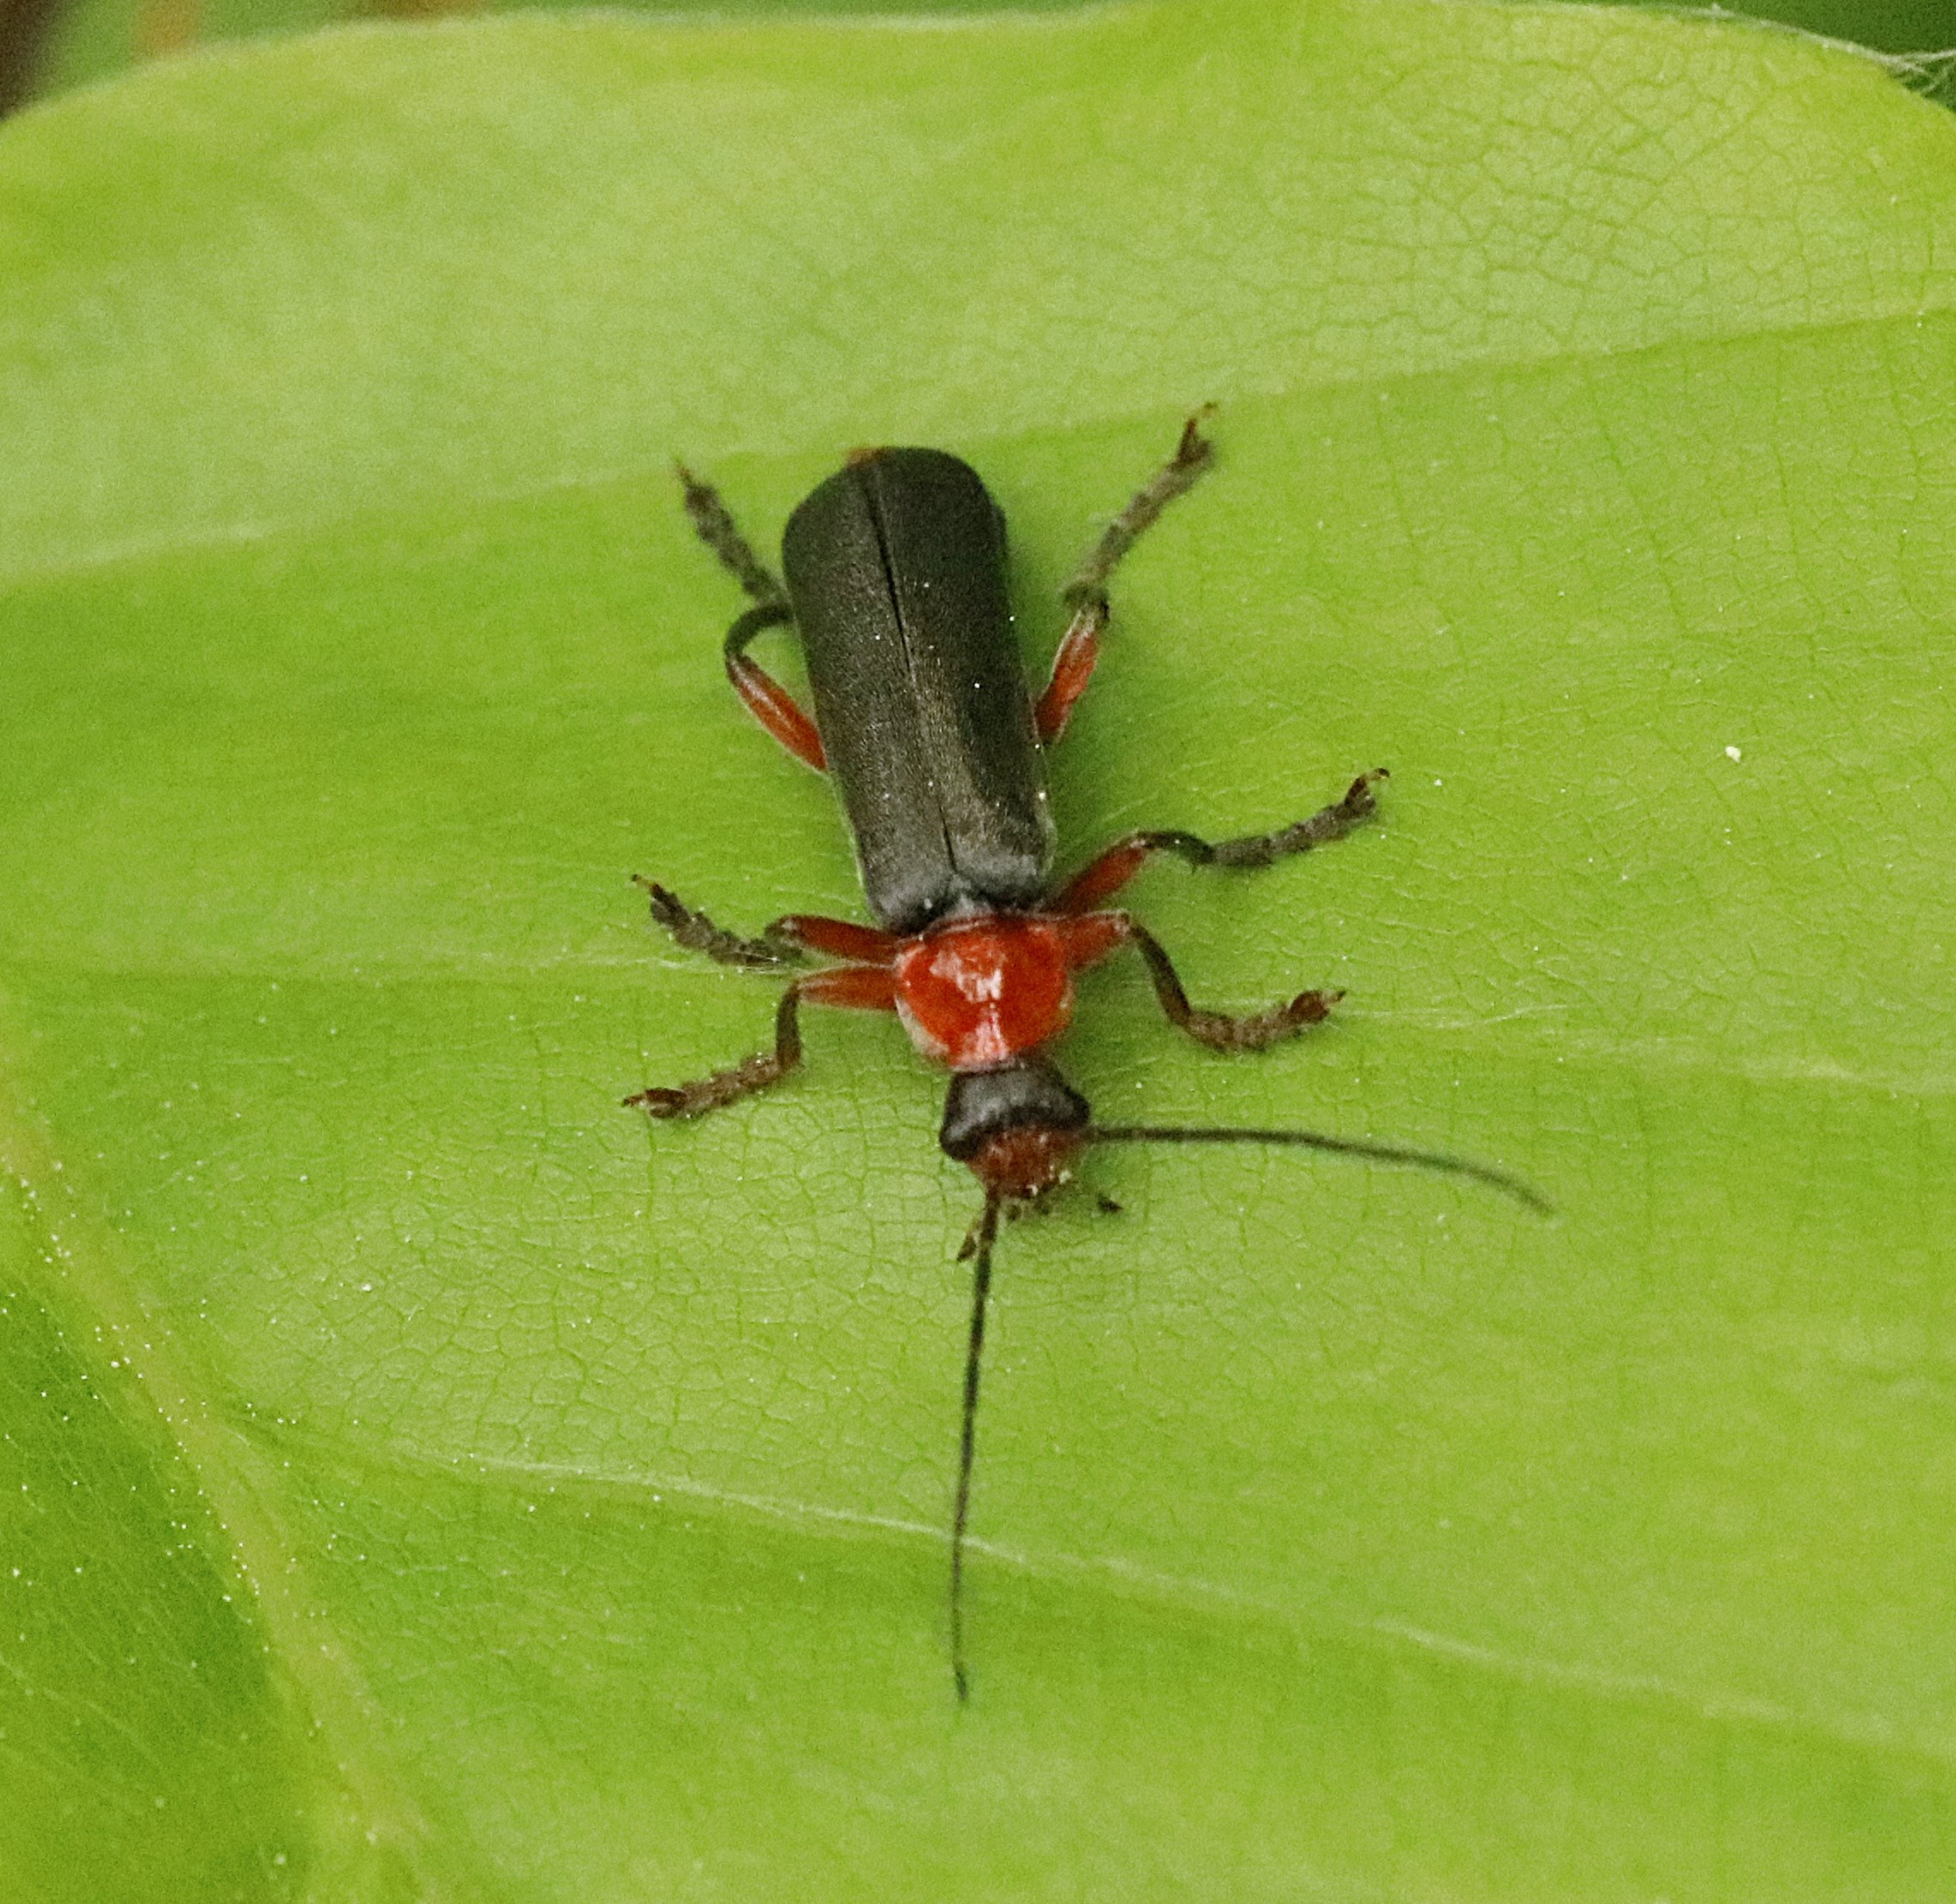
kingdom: Animalia
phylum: Arthropoda
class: Insecta
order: Coleoptera
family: Cantharidae
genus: Cantharis
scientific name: Cantharis pellucida
